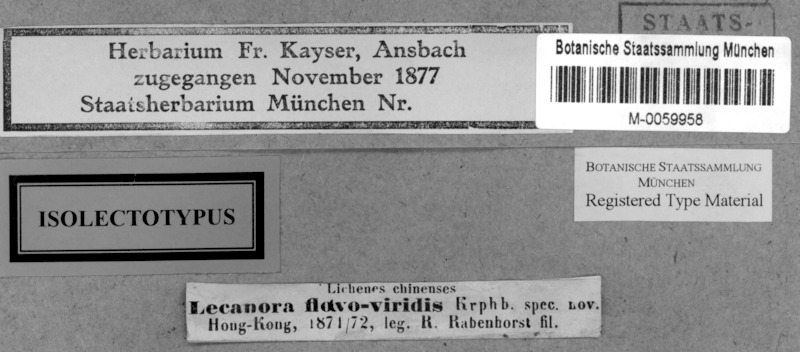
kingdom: Fungi
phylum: Ascomycota
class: Lecanoromycetes
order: Lecanorales
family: Lecanoraceae
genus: Lecanora
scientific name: Lecanora flavoviridis
